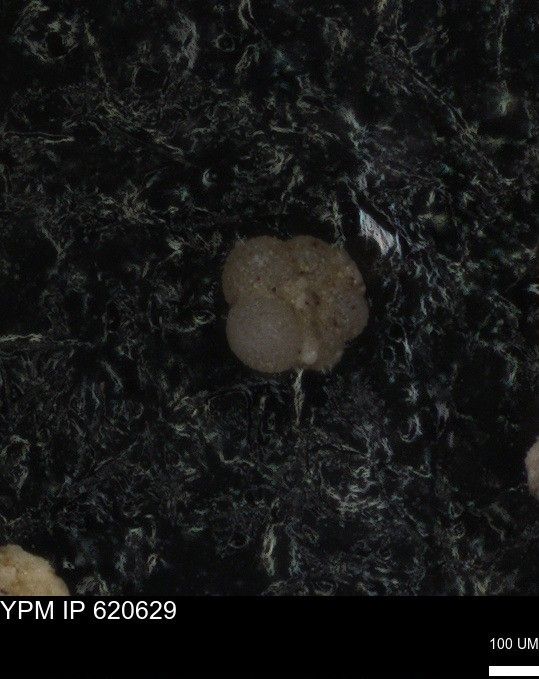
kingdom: Chromista
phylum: Foraminifera
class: Globothalamea
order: Rotaliida
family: Rugoglobigerinidae
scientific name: Rugoglobigerinidae
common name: forams
